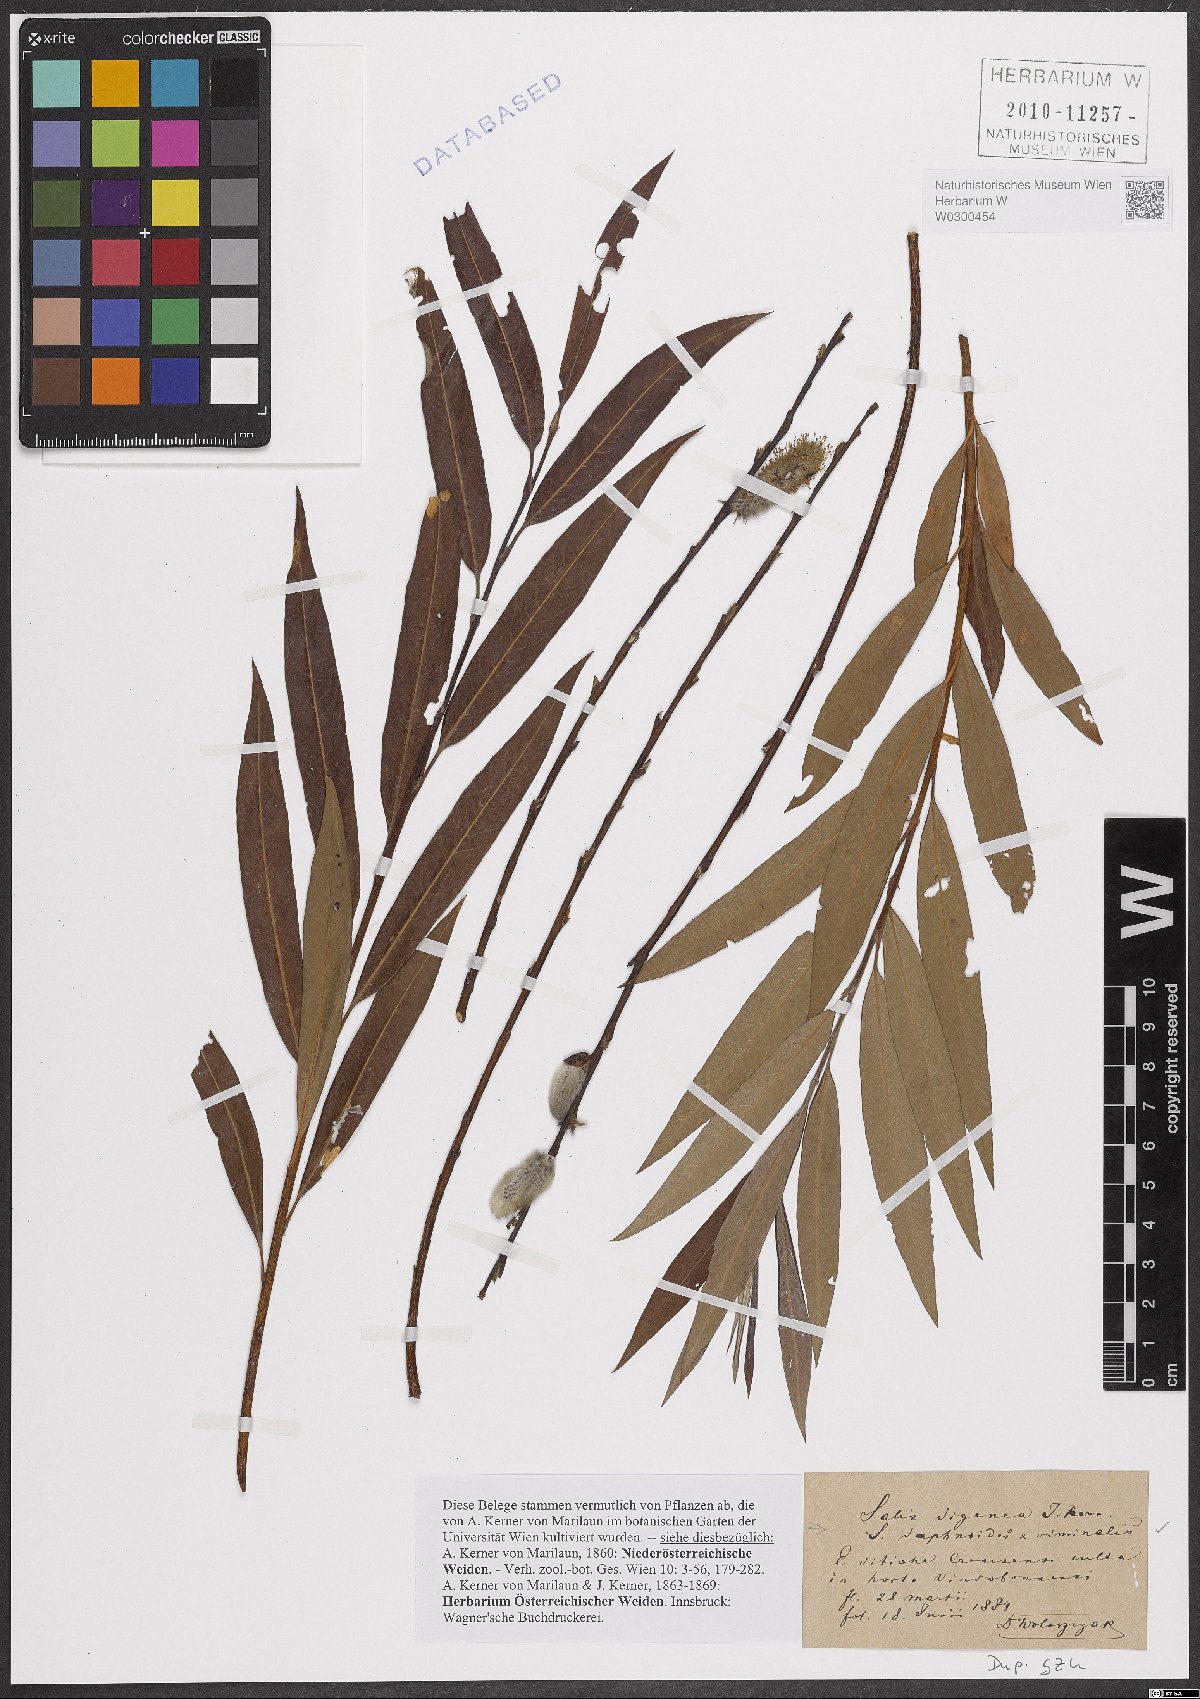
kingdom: Plantae
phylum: Tracheophyta
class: Magnoliopsida
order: Malpighiales
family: Salicaceae
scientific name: Salicaceae
